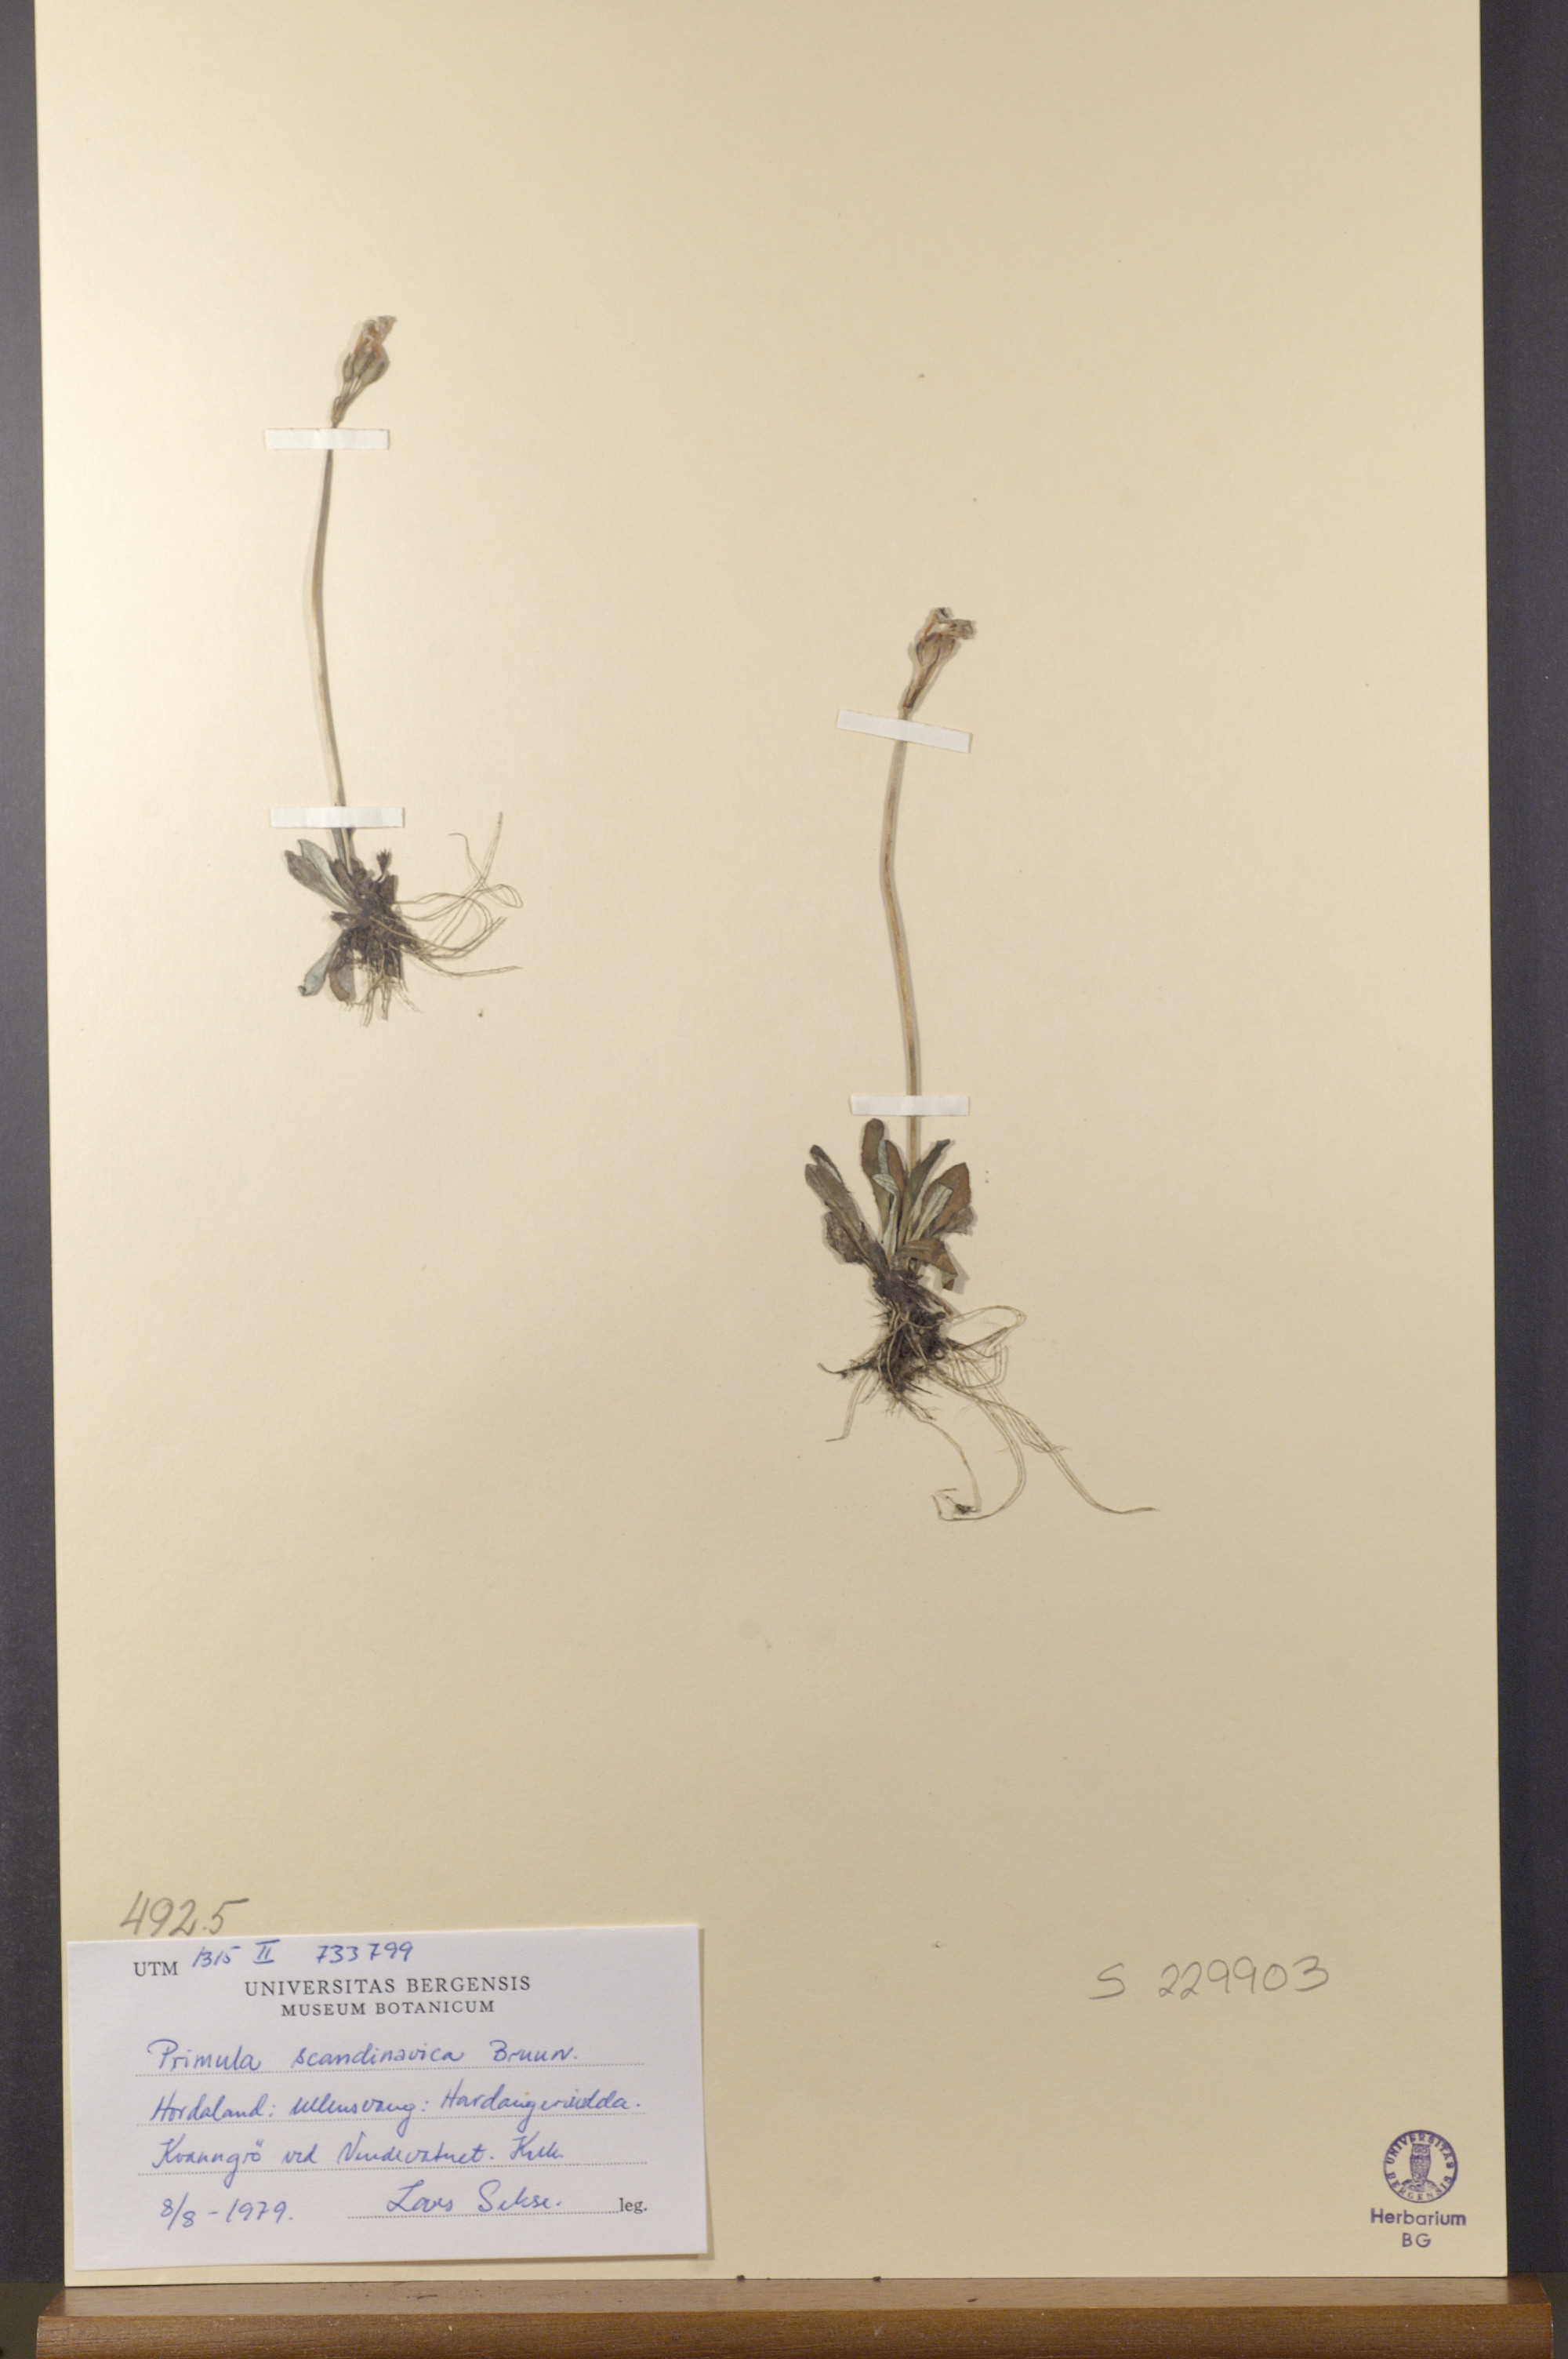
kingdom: Plantae
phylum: Tracheophyta
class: Magnoliopsida
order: Ericales
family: Primulaceae
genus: Primula
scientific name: Primula scandinavica
